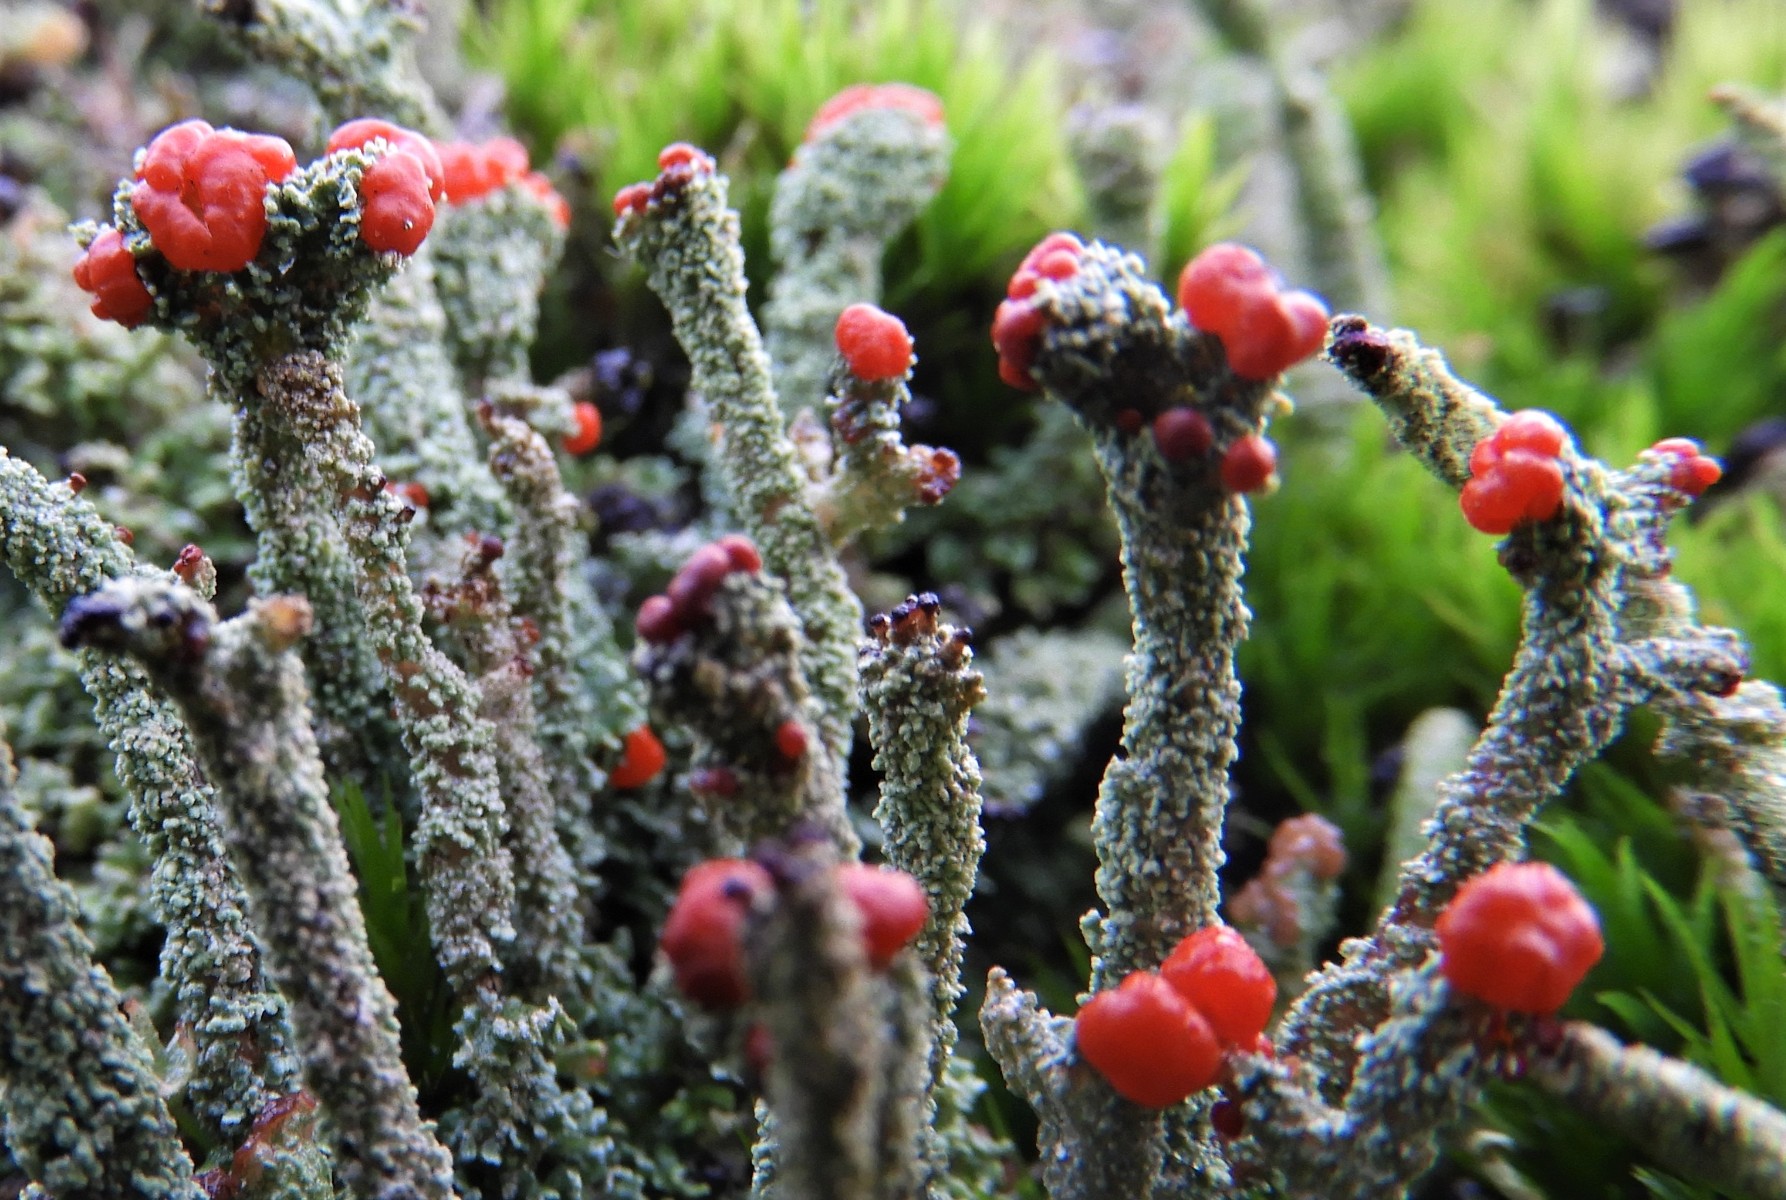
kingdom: Fungi
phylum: Ascomycota
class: Lecanoromycetes
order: Lecanorales
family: Cladoniaceae
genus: Cladonia
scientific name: Cladonia floerkeana
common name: lakrød bægerlav
